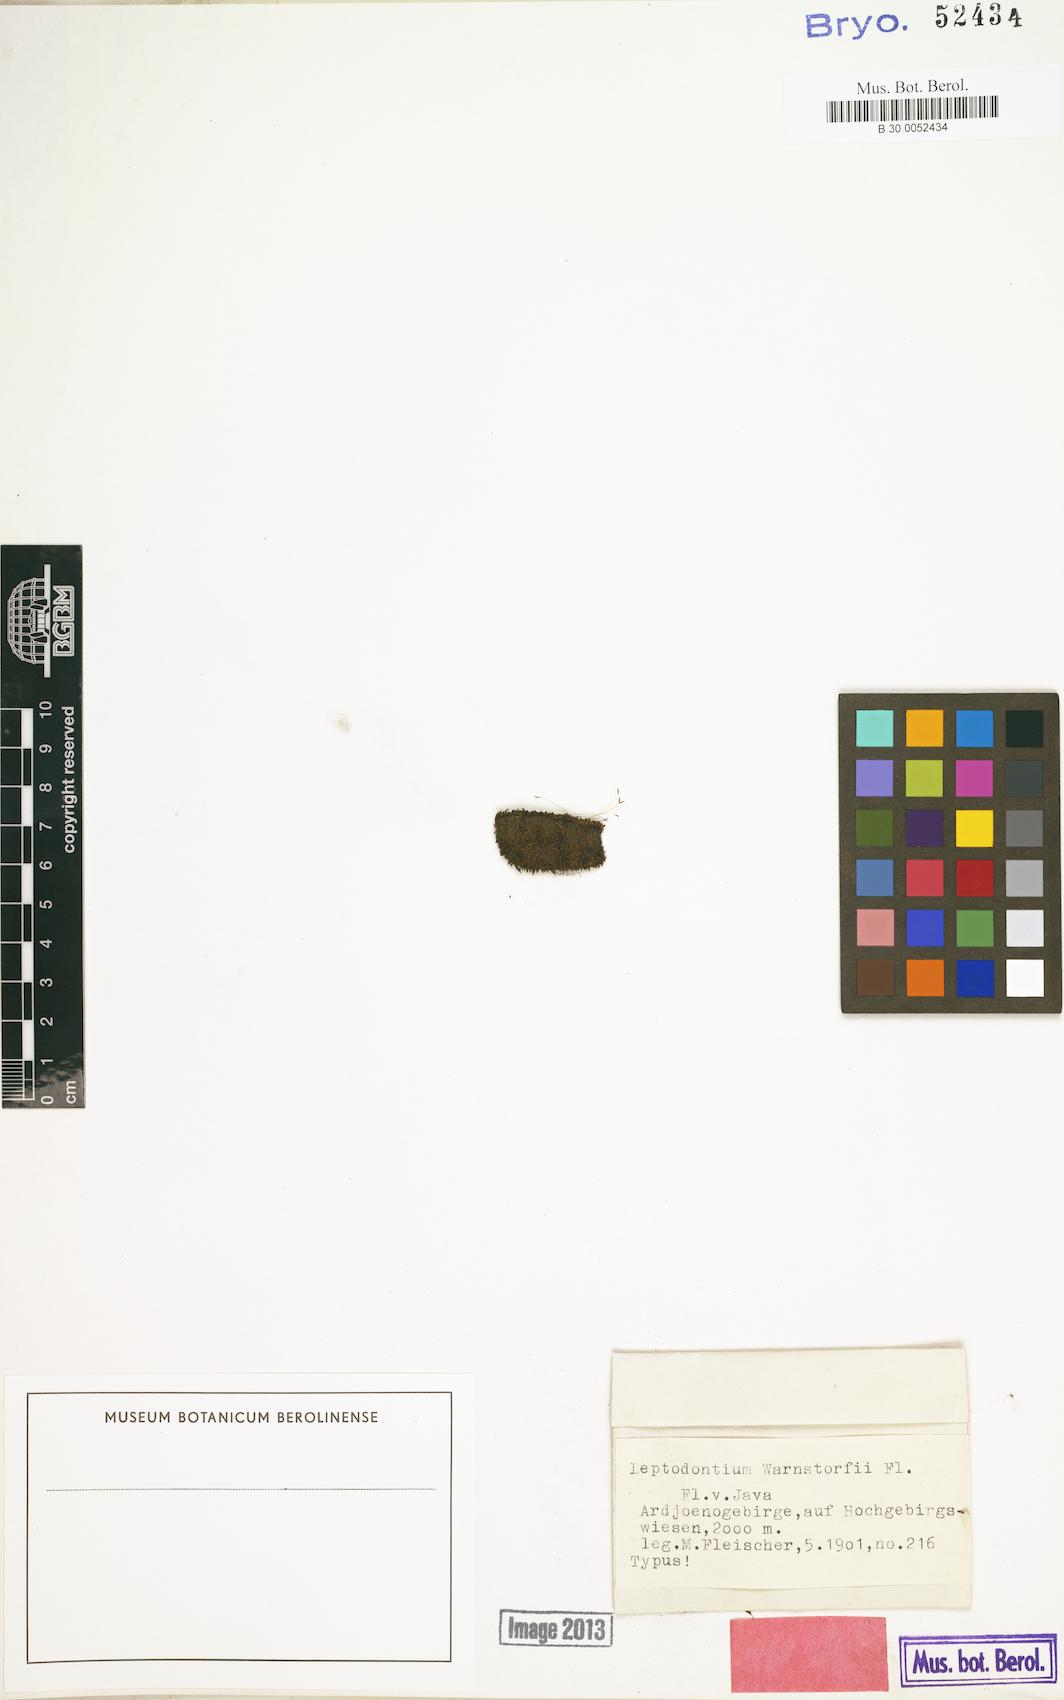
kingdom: Plantae
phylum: Bryophyta
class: Bryopsida
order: Pottiales
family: Pottiaceae
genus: Leptodontium
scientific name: Leptodontium flexifolium
